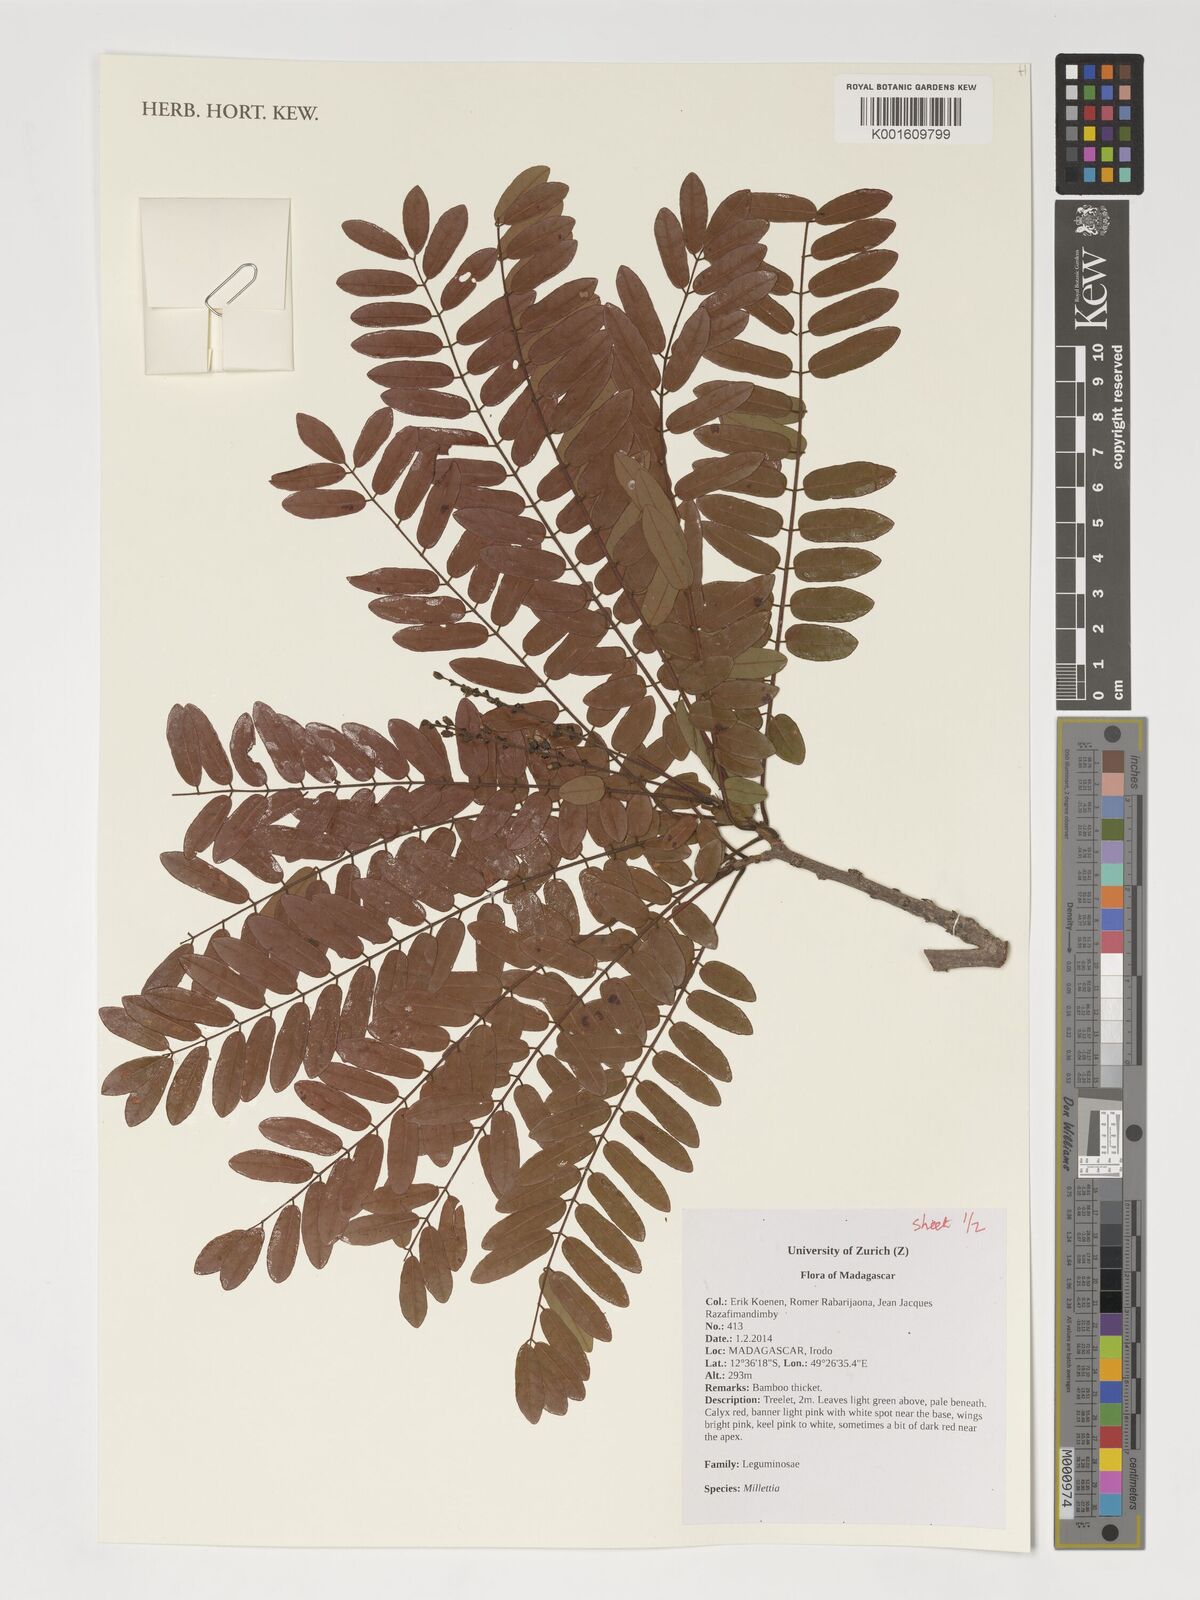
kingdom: Plantae
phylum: Tracheophyta
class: Magnoliopsida
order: Fabales
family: Fabaceae
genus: Millettia
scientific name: Millettia
